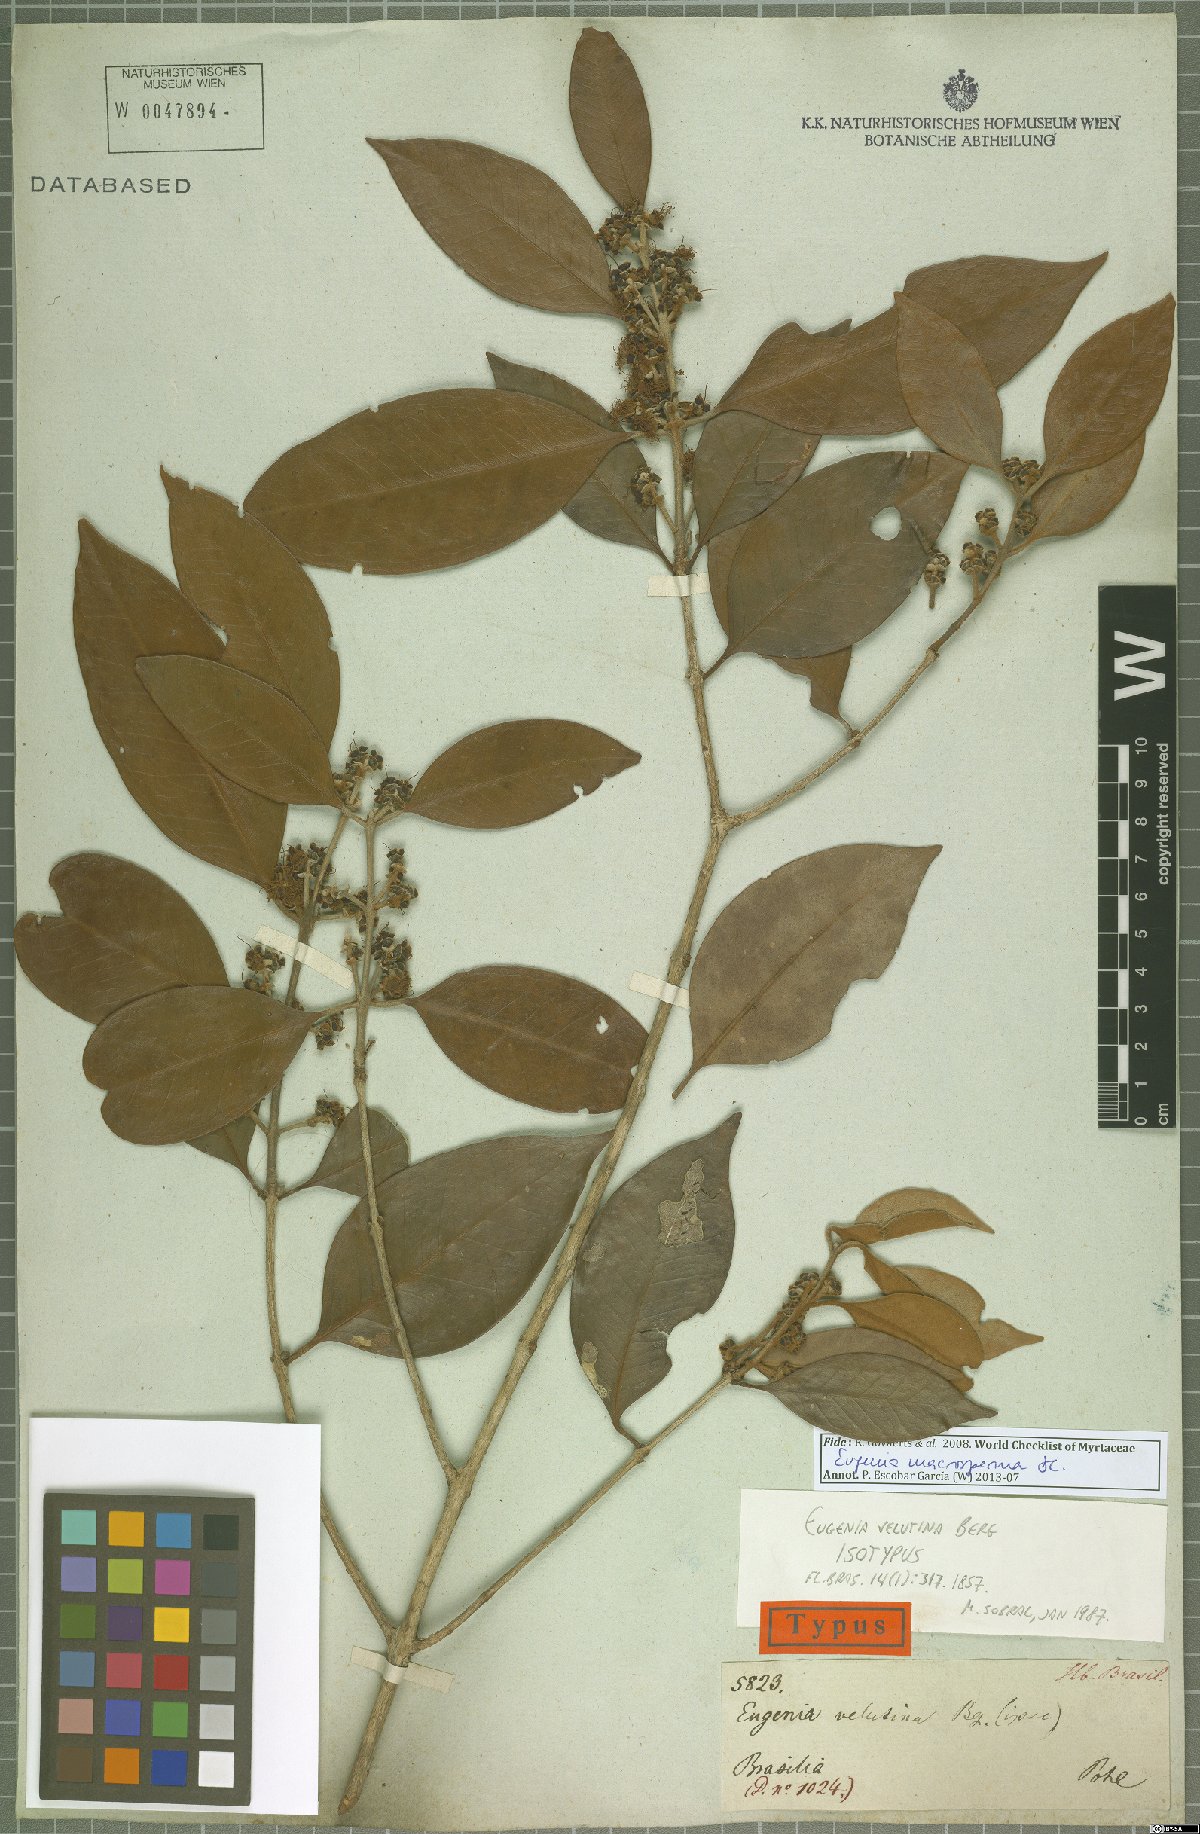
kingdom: Plantae
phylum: Tracheophyta
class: Magnoliopsida
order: Myrtales
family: Myrtaceae
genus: Eugenia
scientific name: Eugenia macrosperma
